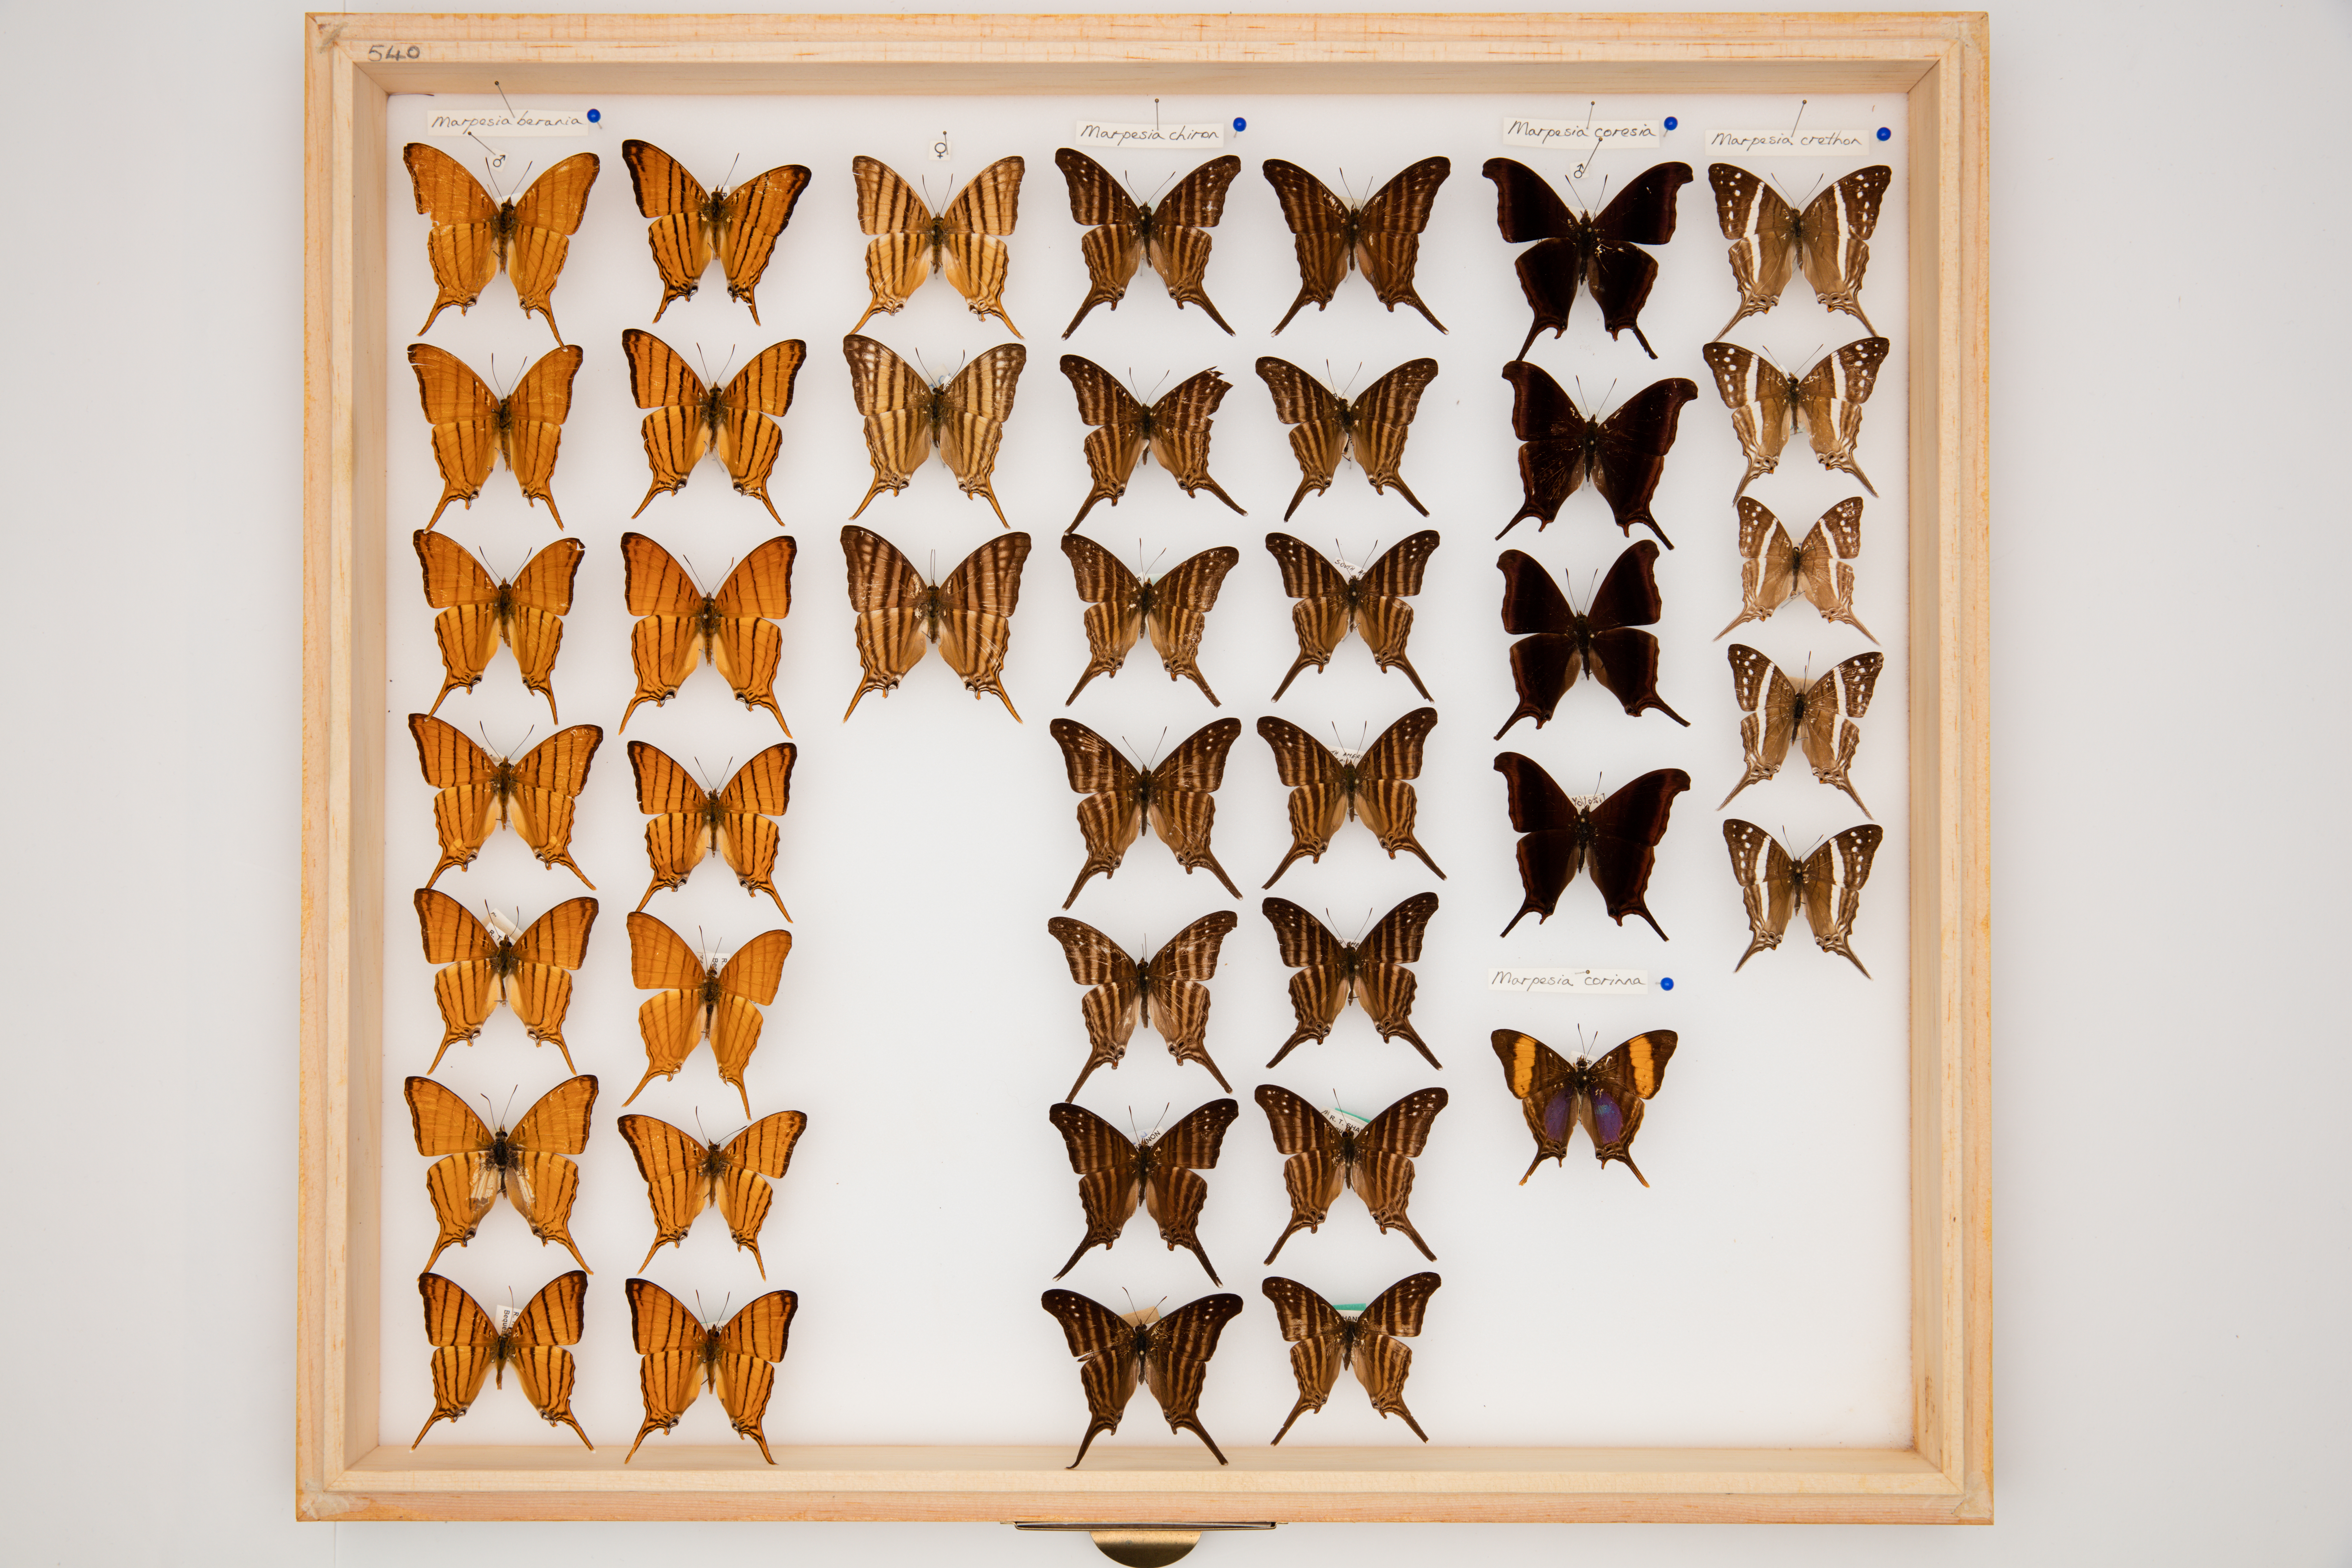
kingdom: Animalia
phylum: Arthropoda
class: Insecta
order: Lepidoptera
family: Nymphalidae
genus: Marpesia
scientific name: Marpesia corinna
